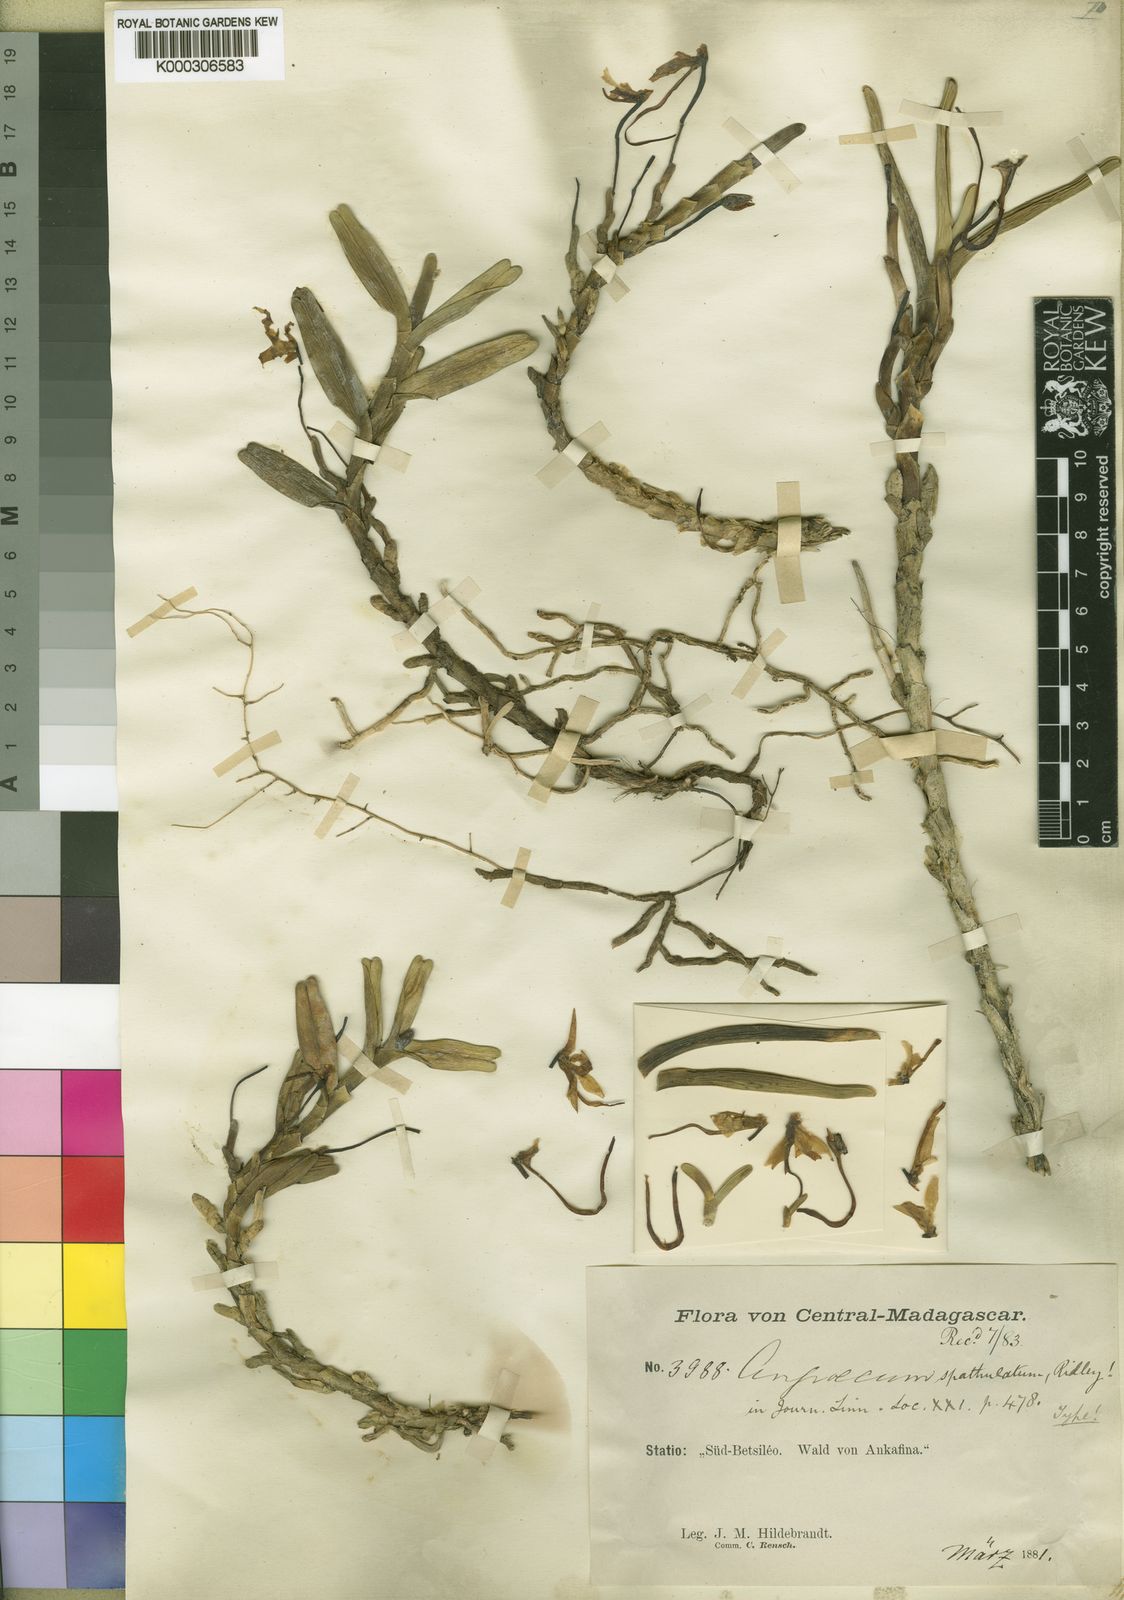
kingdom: Plantae
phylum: Tracheophyta
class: Liliopsida
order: Asparagales
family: Orchidaceae
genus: Jumellea
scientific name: Jumellea spathulata
